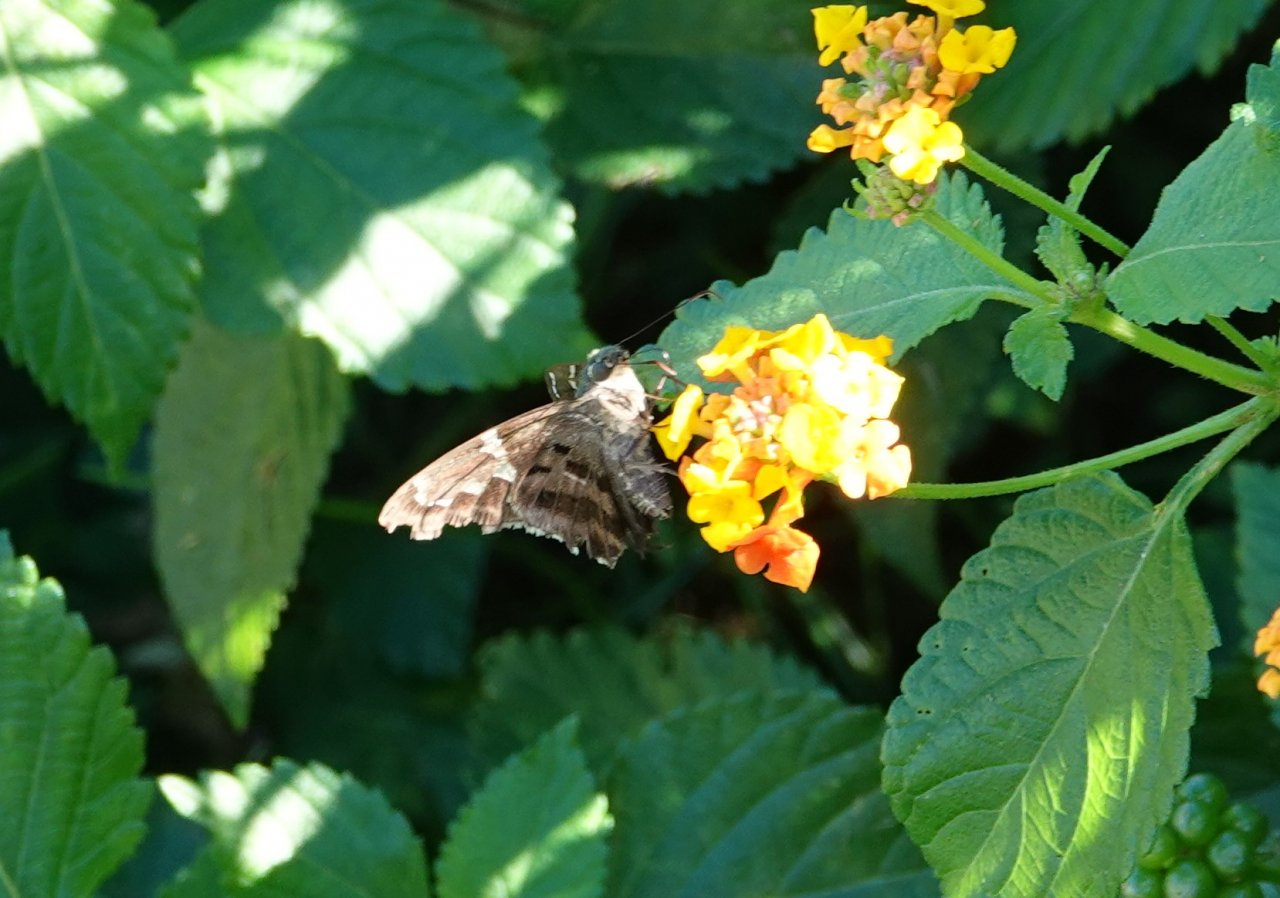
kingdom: Animalia
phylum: Arthropoda
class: Insecta
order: Lepidoptera
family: Hesperiidae
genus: Urbanus
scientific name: Urbanus proteus
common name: Long-tailed Skipper
